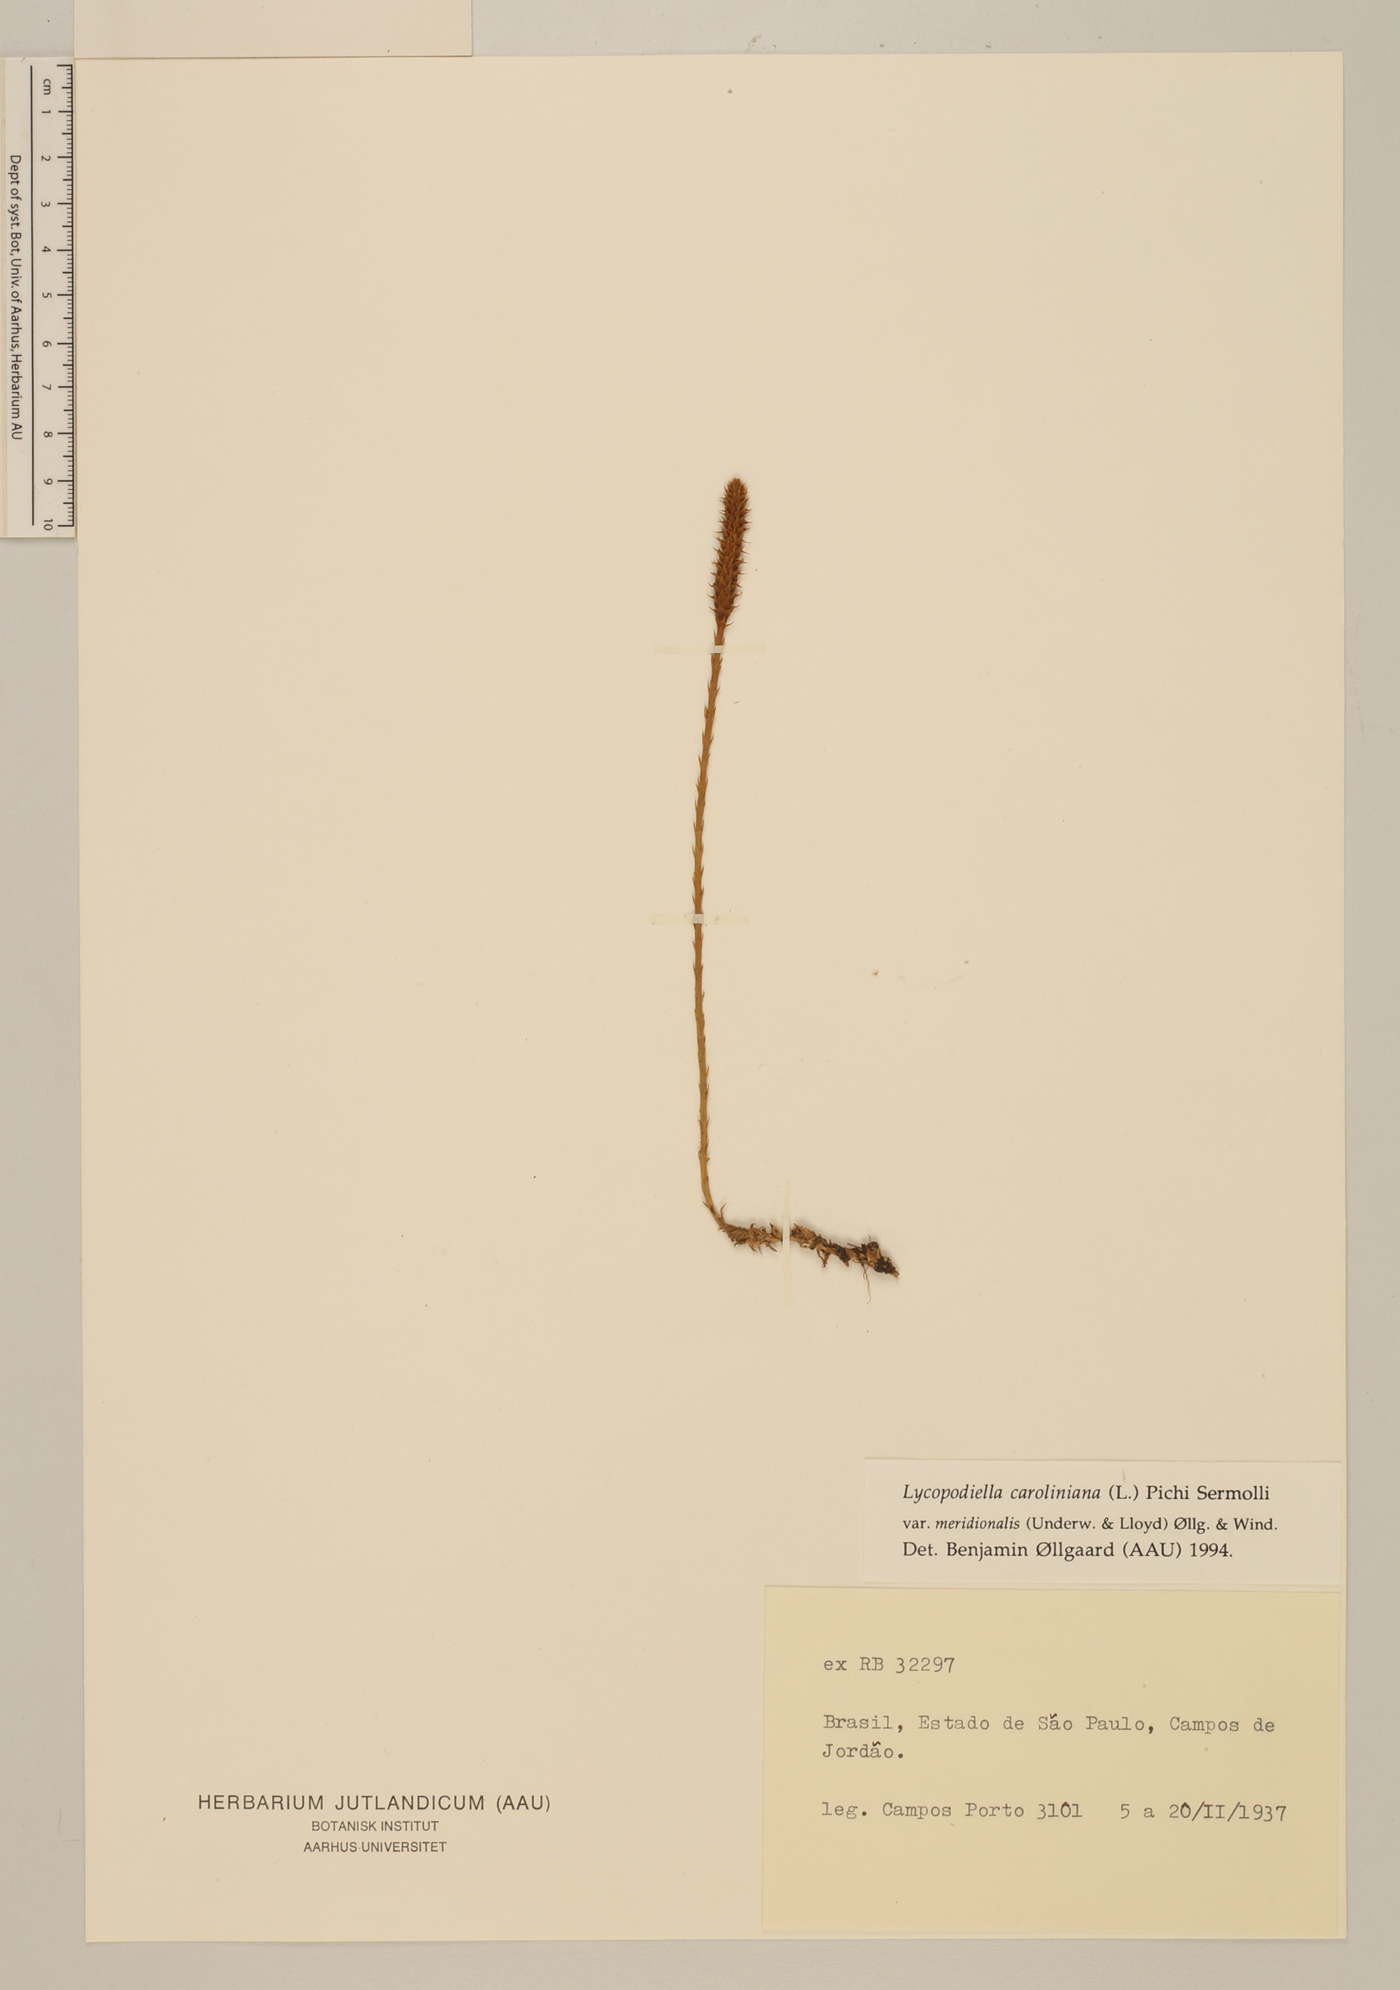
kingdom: Plantae
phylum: Tracheophyta
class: Lycopodiopsida
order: Lycopodiales
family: Lycopodiaceae
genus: Pseudolycopodiella
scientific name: Pseudolycopodiella meridionalis
